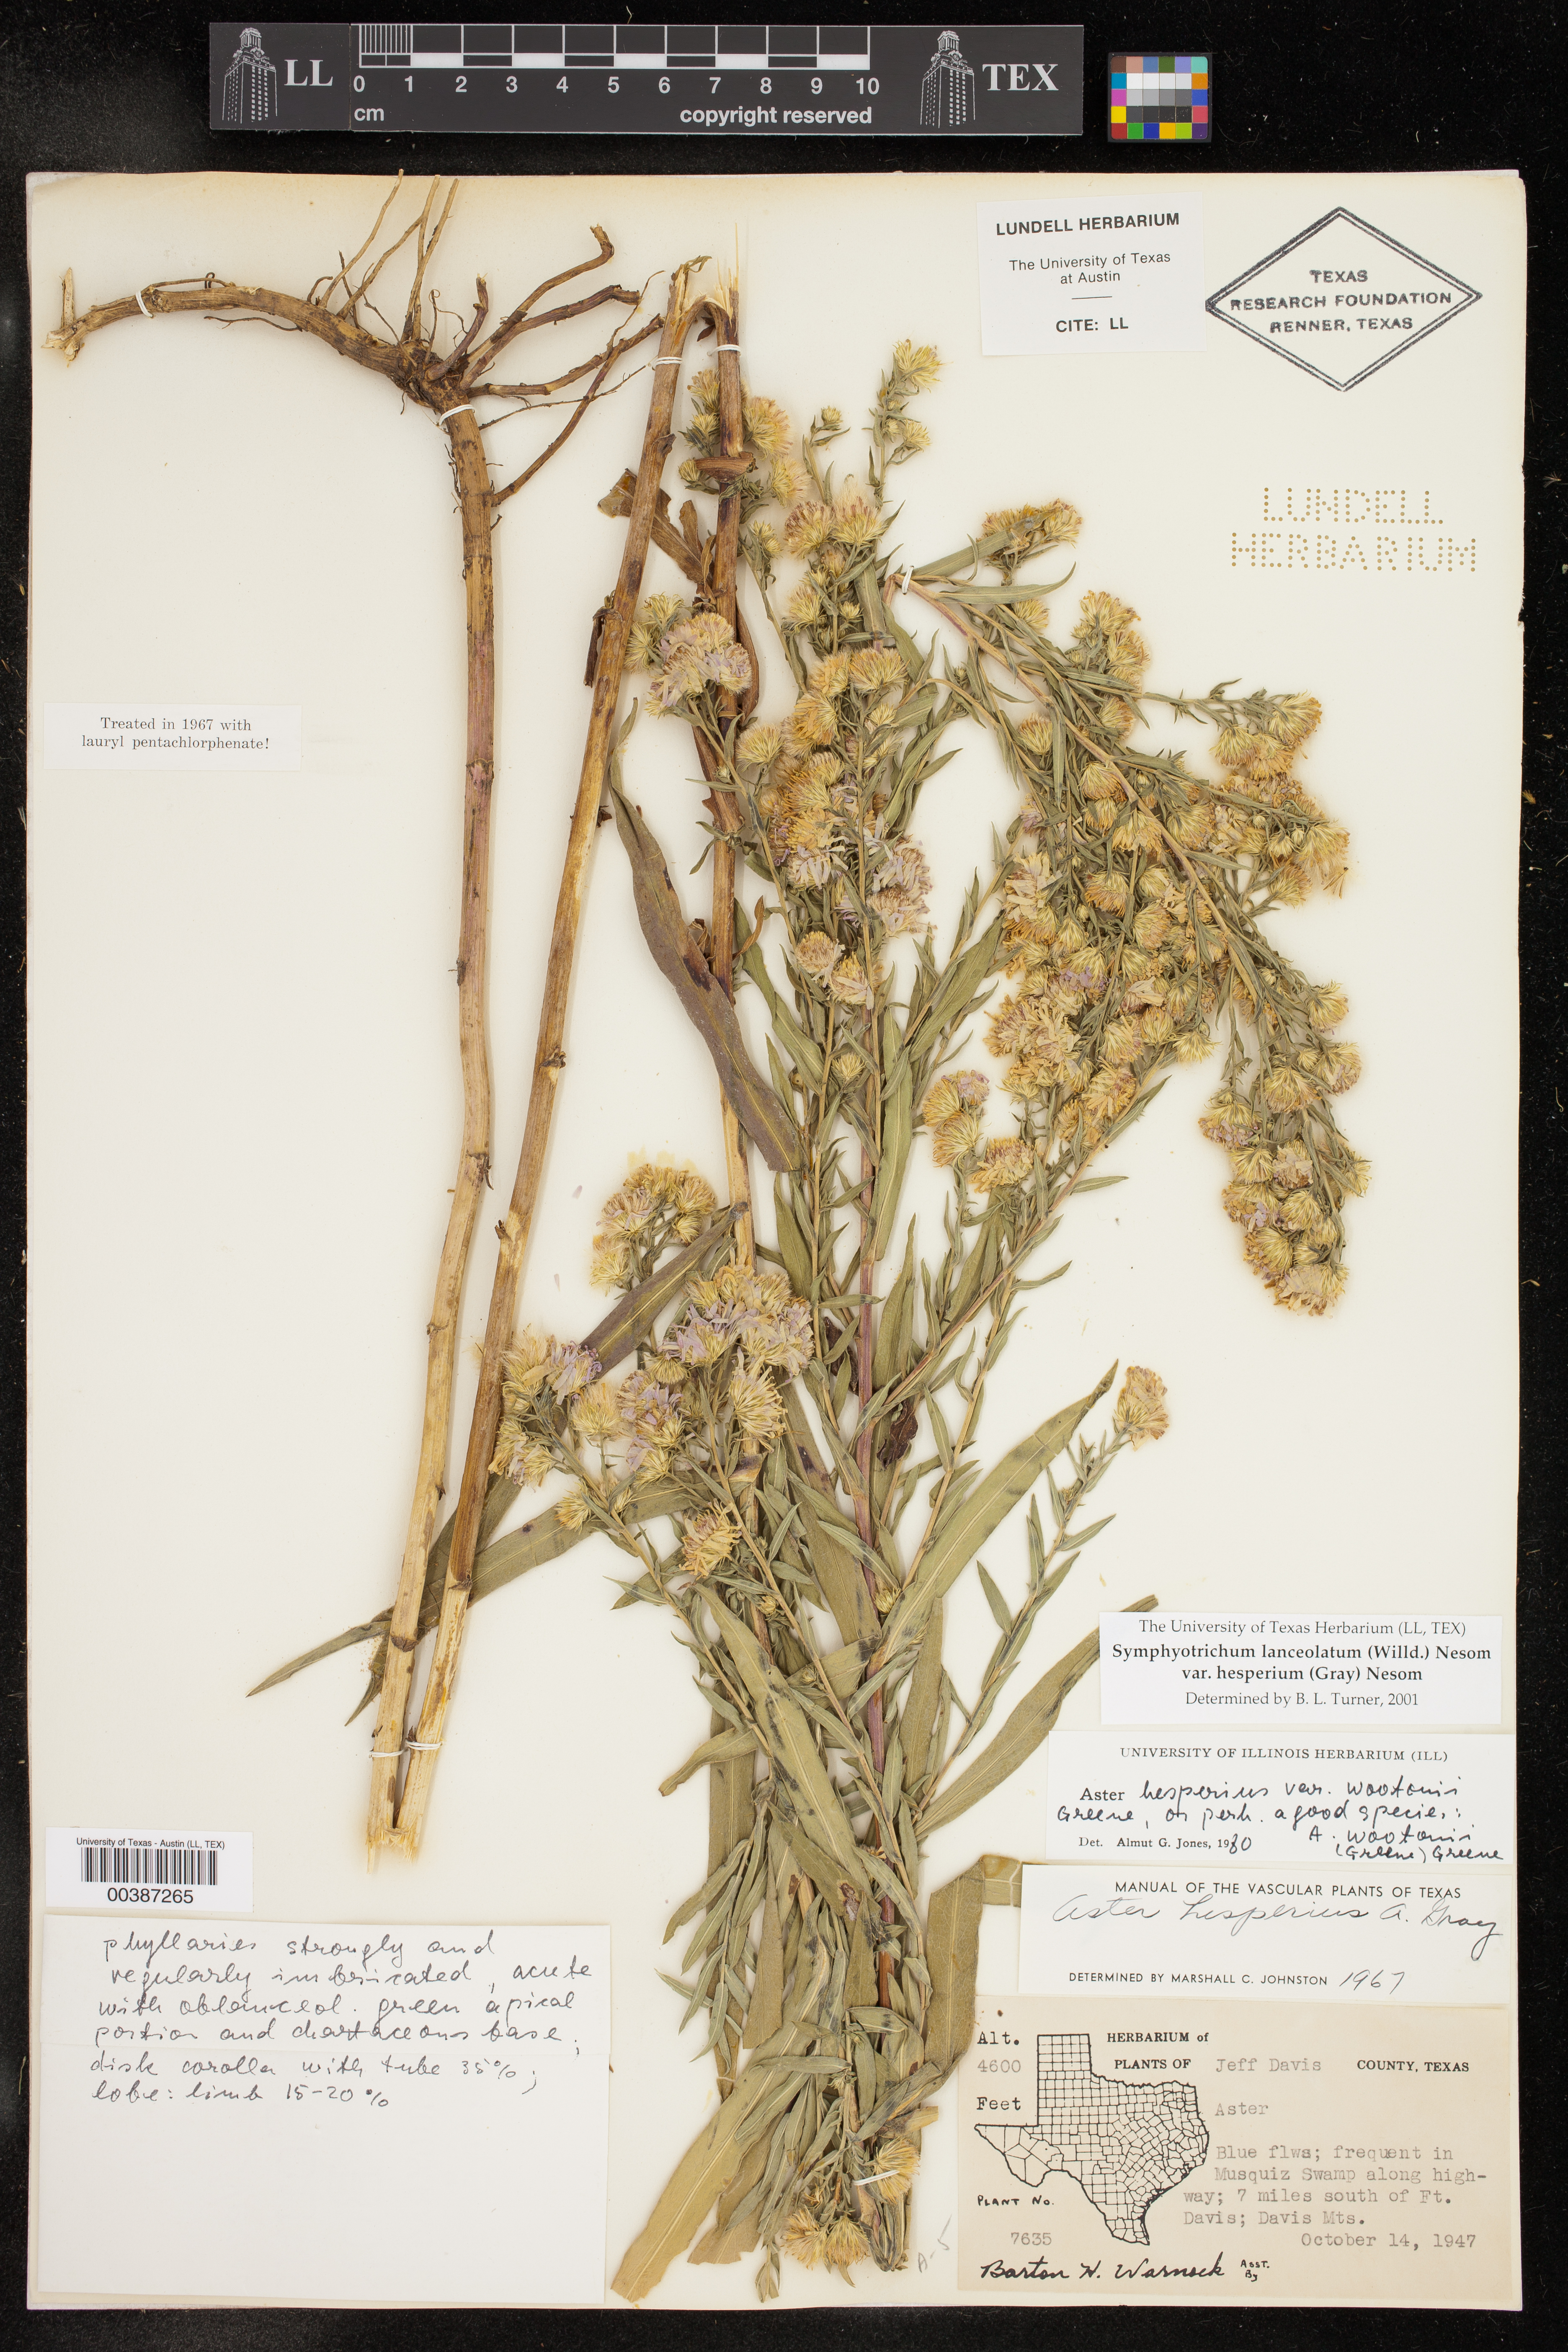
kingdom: Plantae
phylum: Tracheophyta
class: Magnoliopsida
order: Asterales
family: Asteraceae
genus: Symphyotrichum
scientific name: Symphyotrichum lanceolatum
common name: Panicled aster
